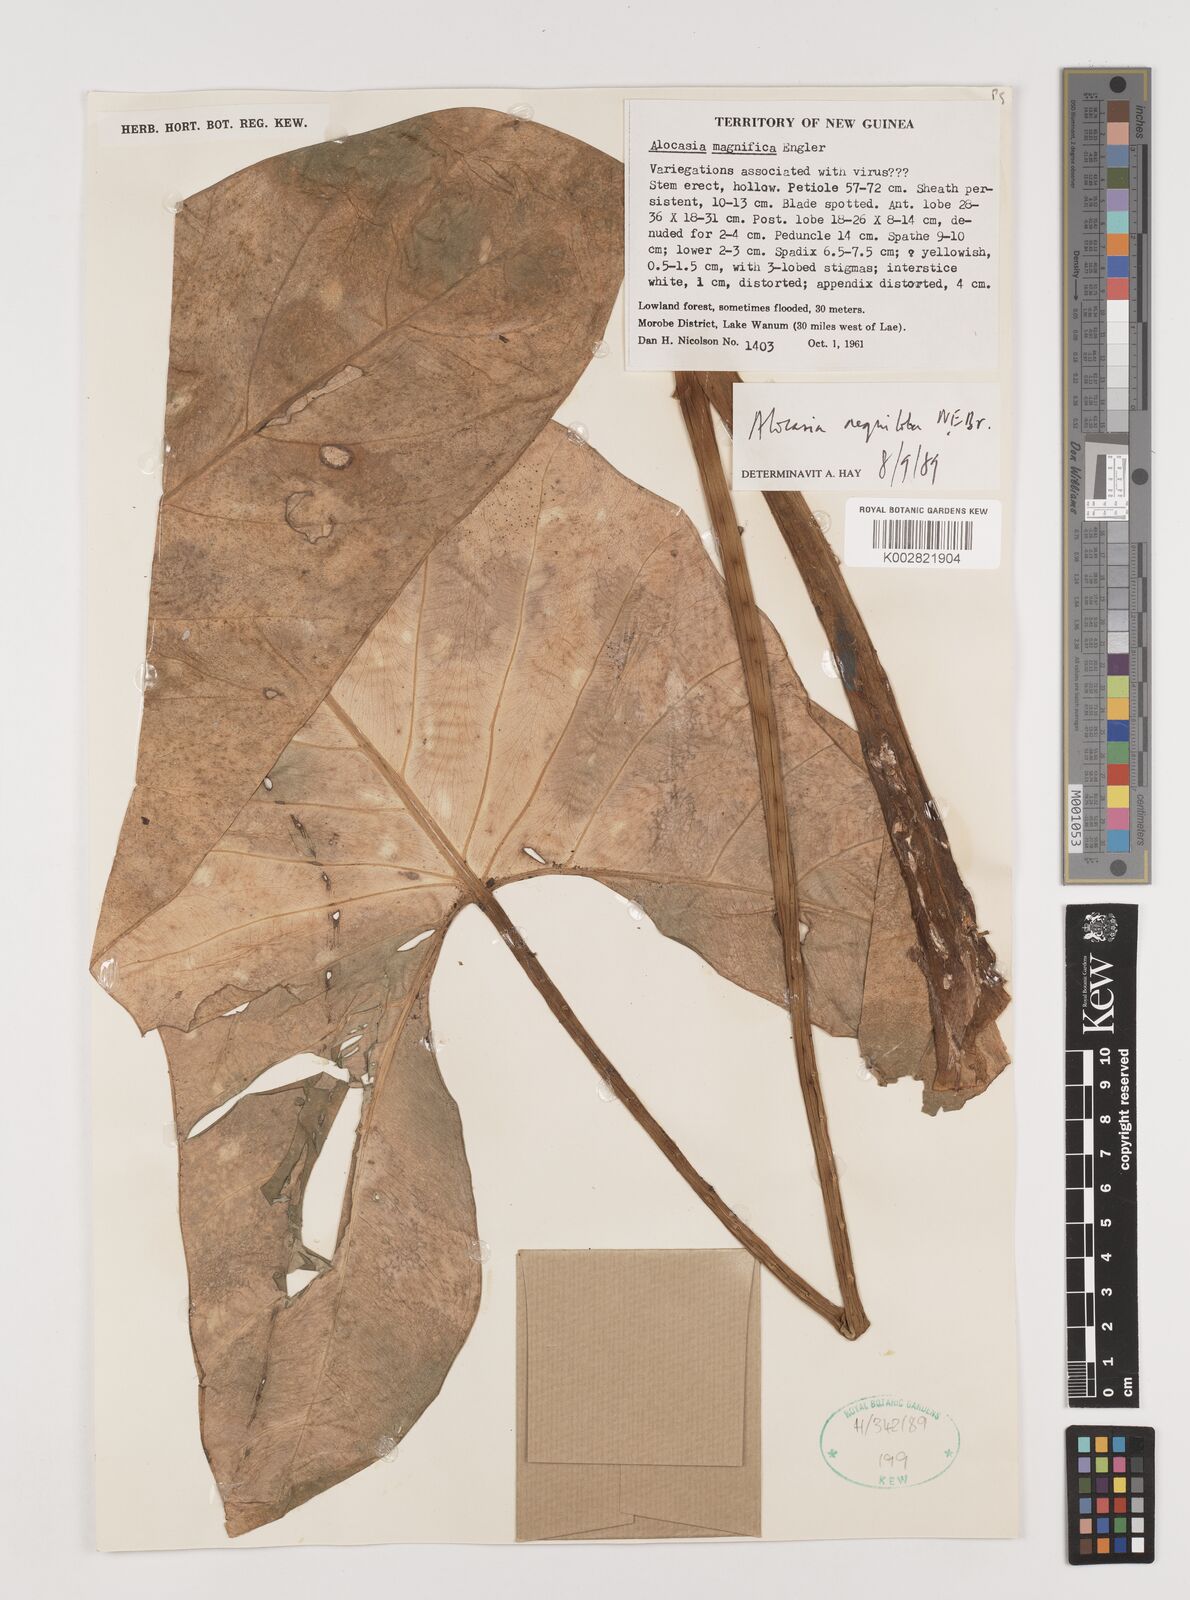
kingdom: Plantae
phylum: Tracheophyta
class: Liliopsida
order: Alismatales
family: Araceae
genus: Alocasia
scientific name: Alocasia aequiloba
